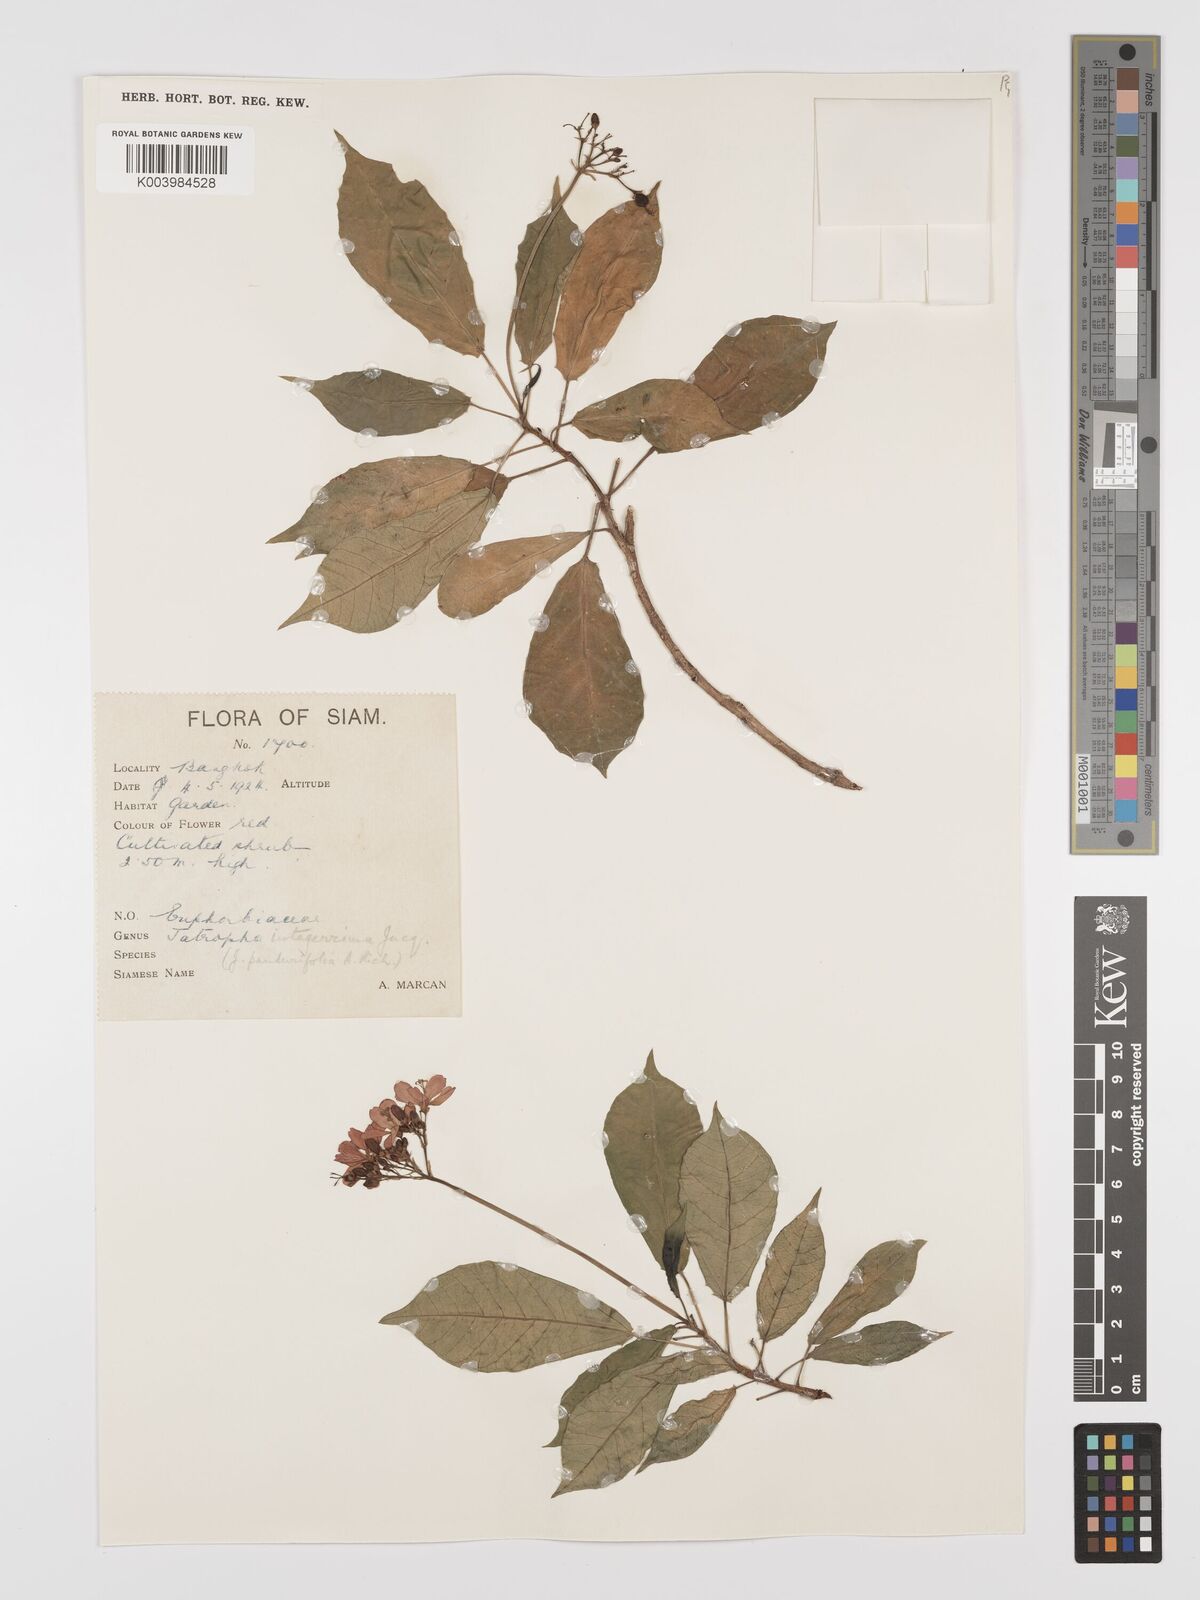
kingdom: Plantae
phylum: Tracheophyta
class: Magnoliopsida
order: Malpighiales
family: Euphorbiaceae
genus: Jatropha
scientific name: Jatropha integerrima
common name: Peregrina
